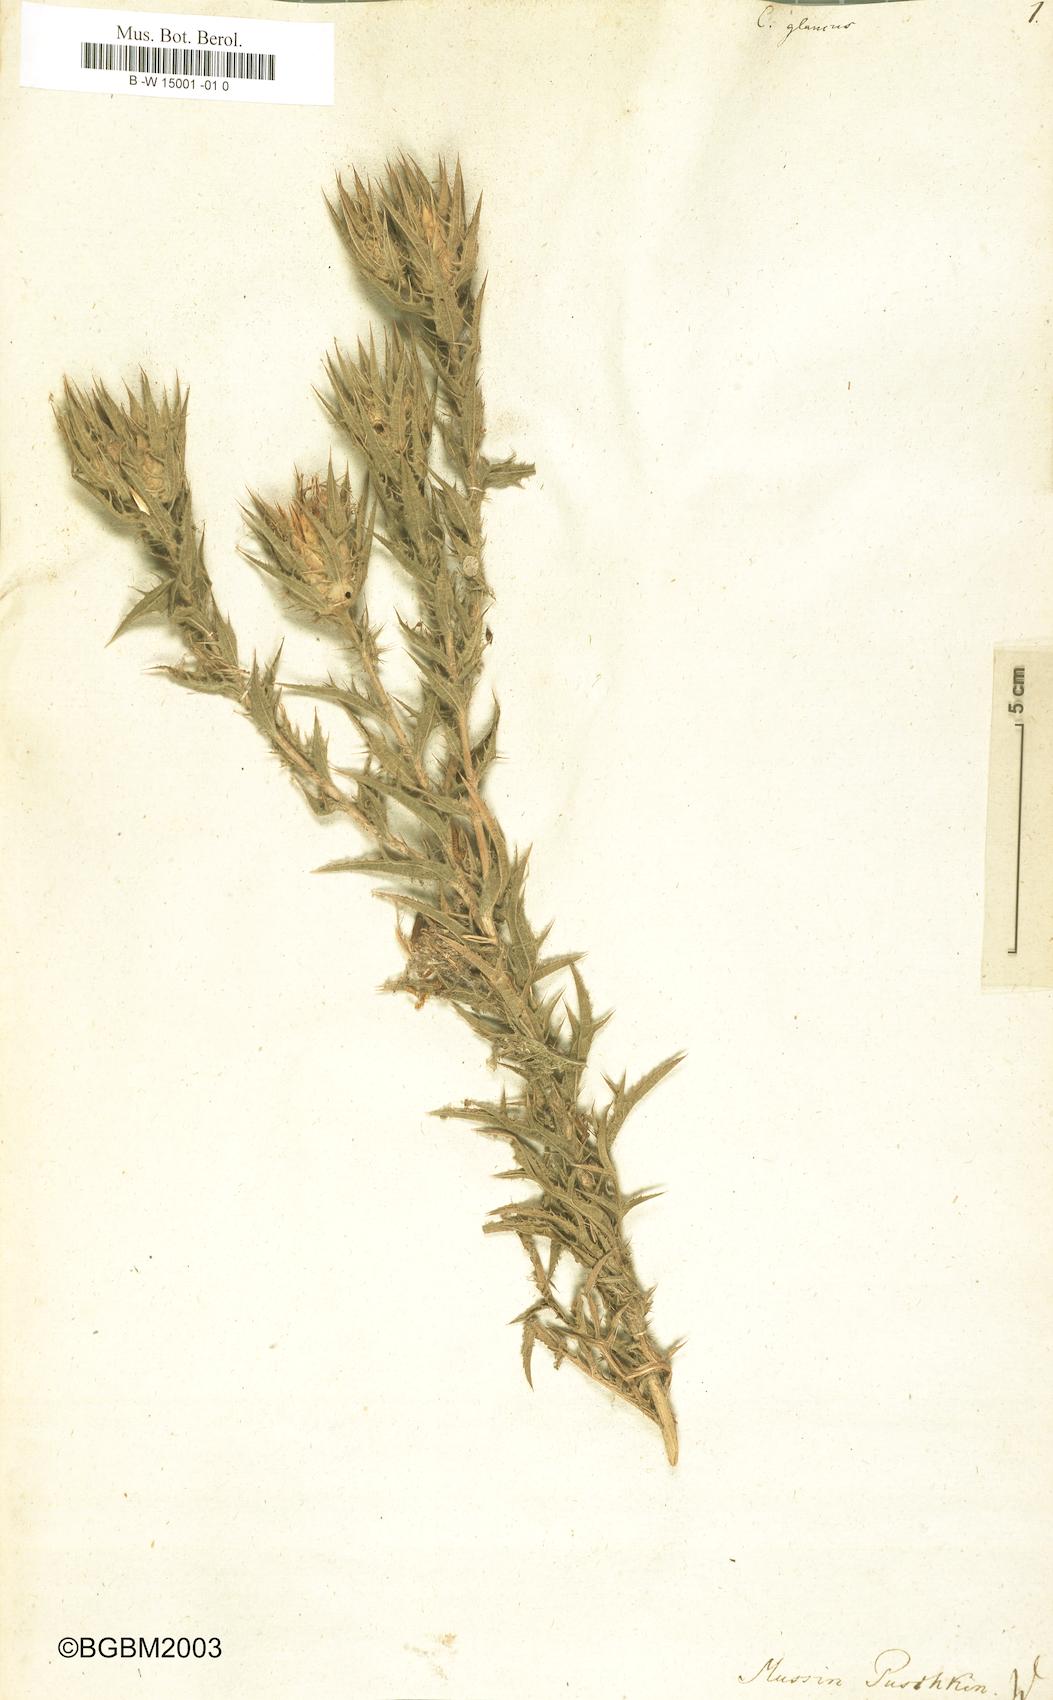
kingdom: Plantae
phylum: Tracheophyta
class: Magnoliopsida
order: Asterales
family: Asteraceae
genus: Carthamus
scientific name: Carthamus glaucus
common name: Mediterranean thistle
